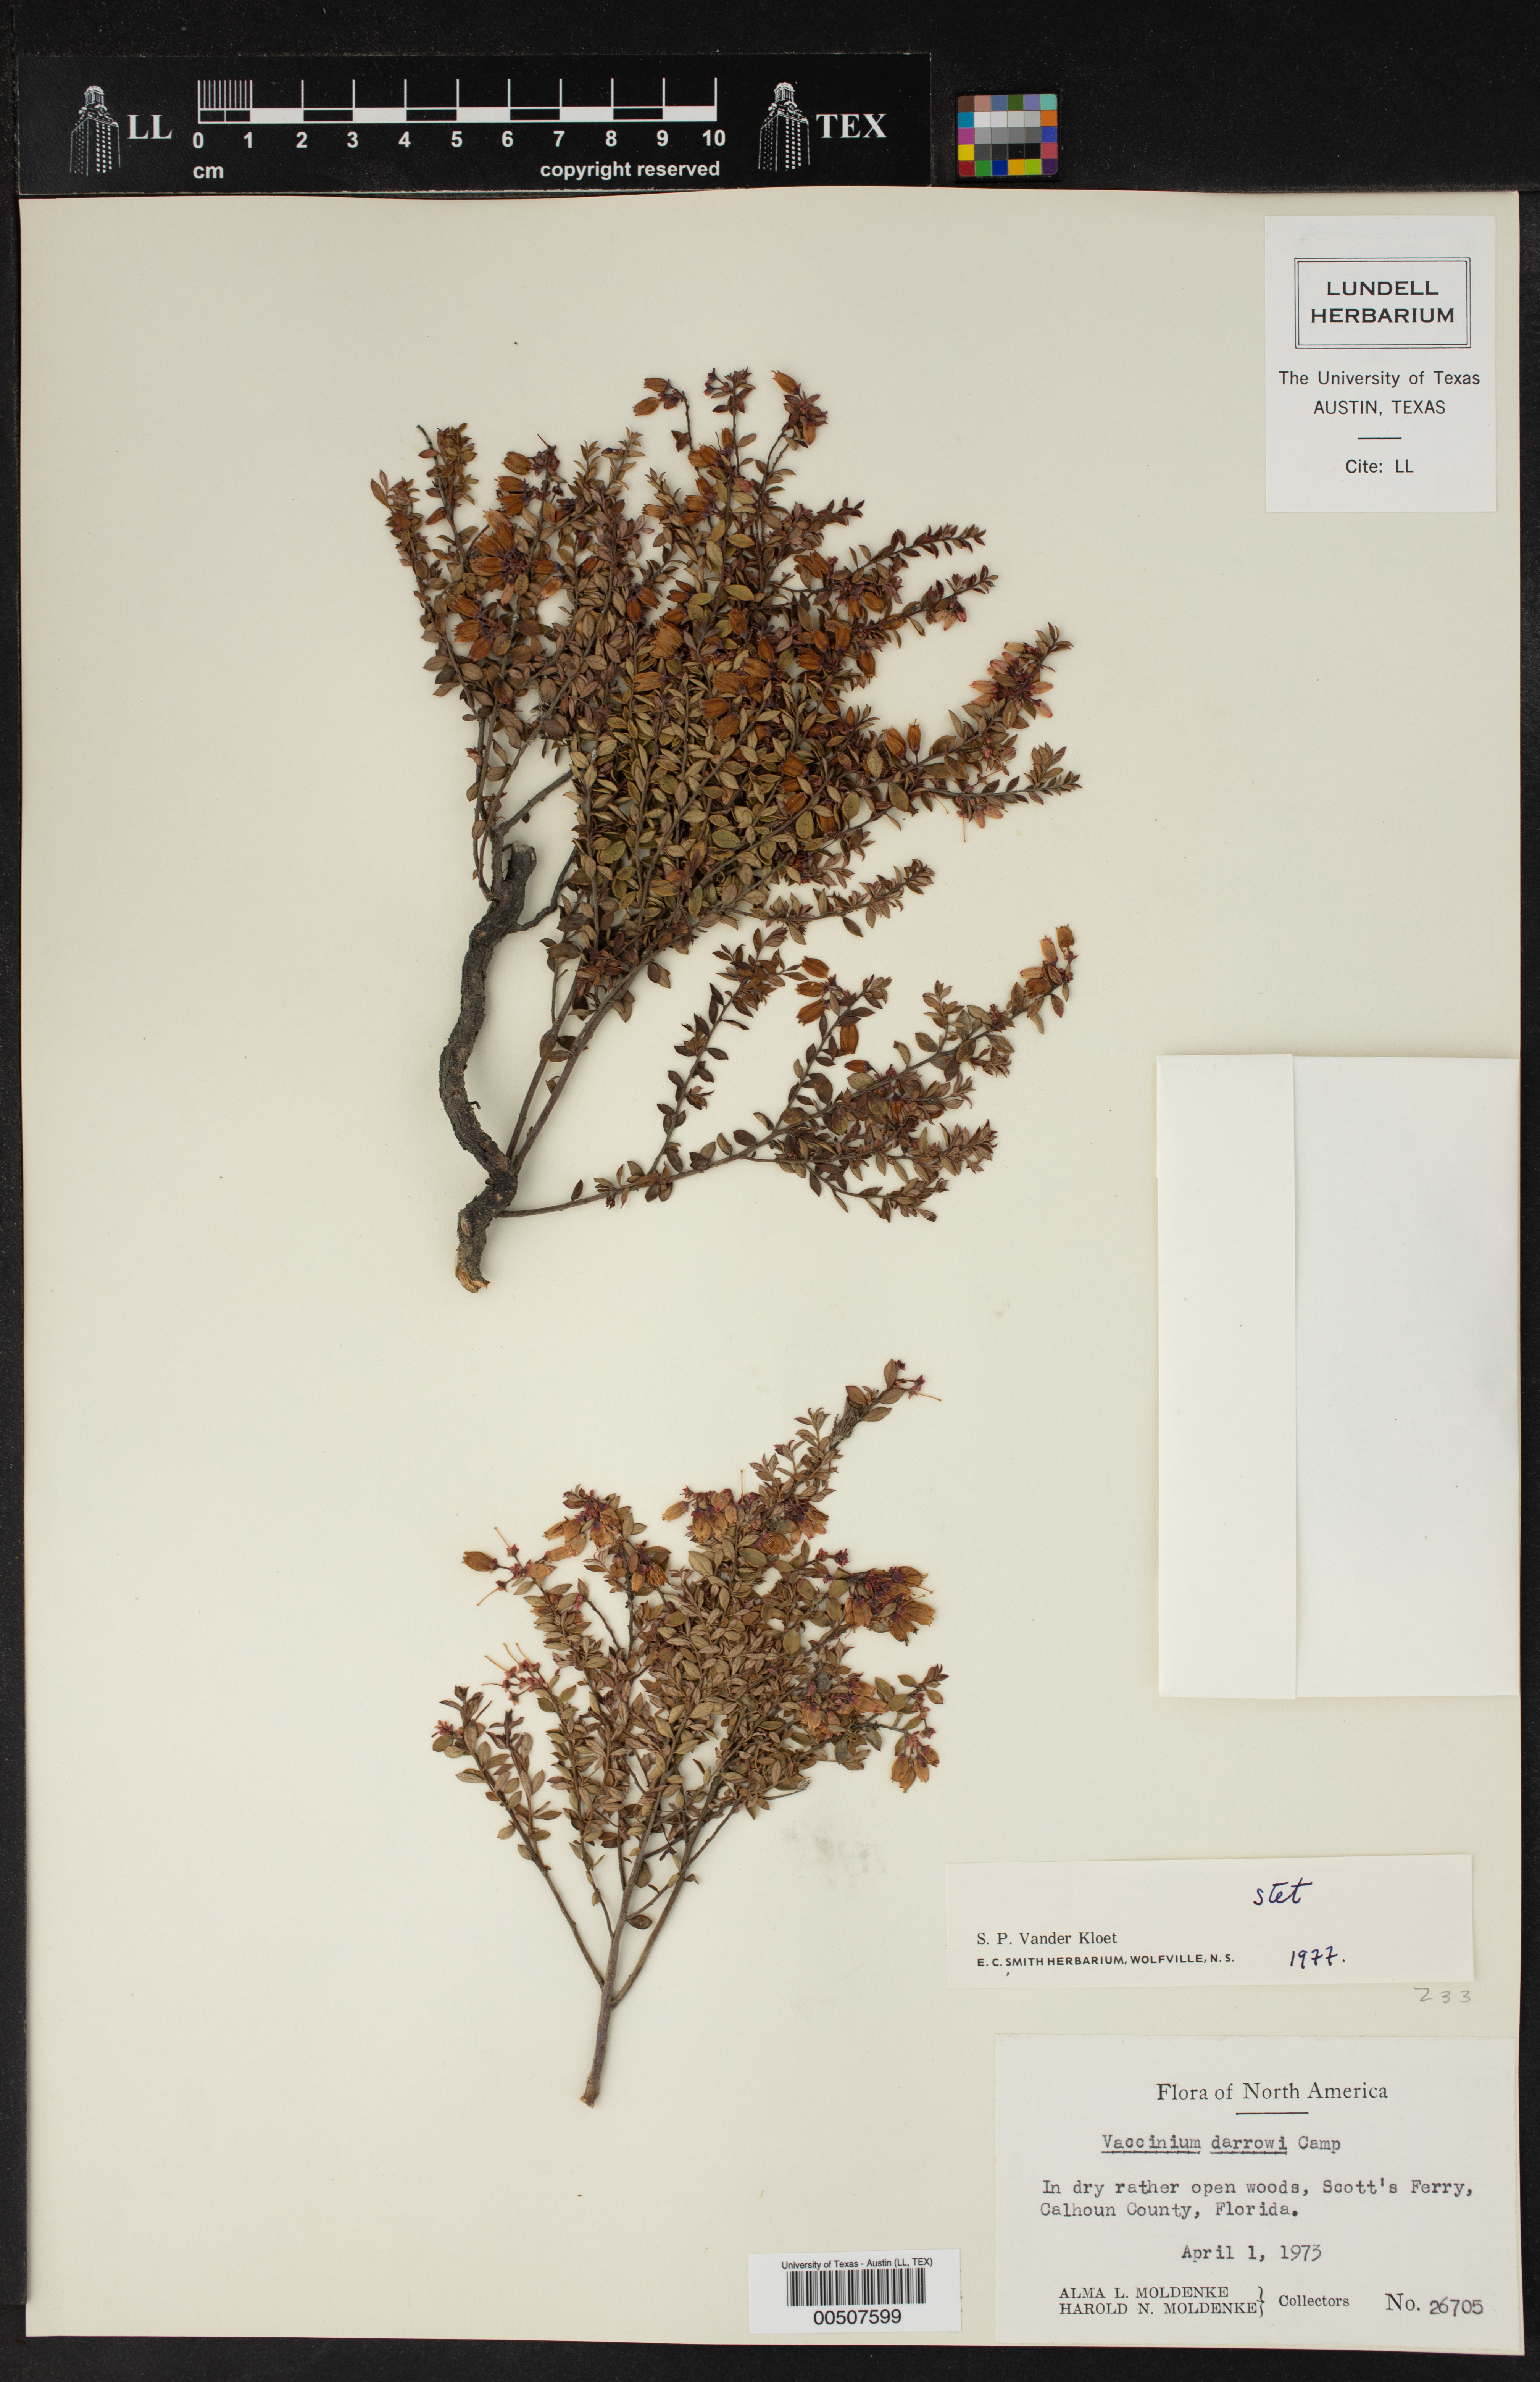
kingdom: Plantae
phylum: Tracheophyta
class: Magnoliopsida
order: Ericales
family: Ericaceae
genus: Vaccinium
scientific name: Vaccinium darrowii
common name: Darrow's blueberry
